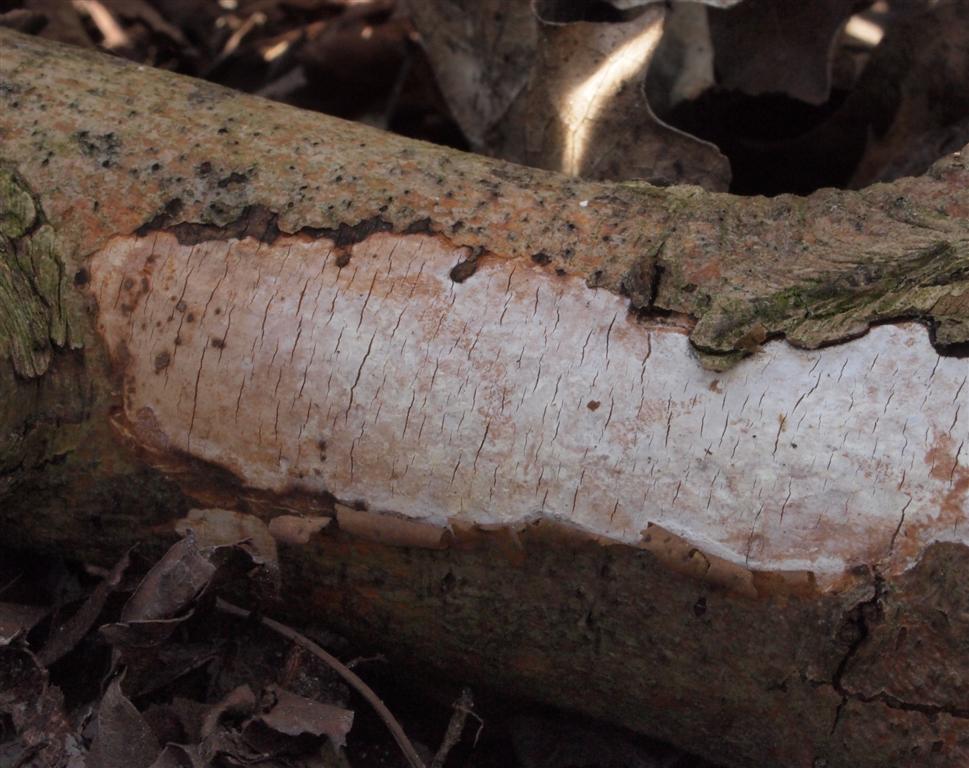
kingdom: Fungi
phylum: Basidiomycota
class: Agaricomycetes
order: Corticiales
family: Vuilleminiaceae
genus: Vuilleminia
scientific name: Vuilleminia cystidiata
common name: tjørne-barksprænger
